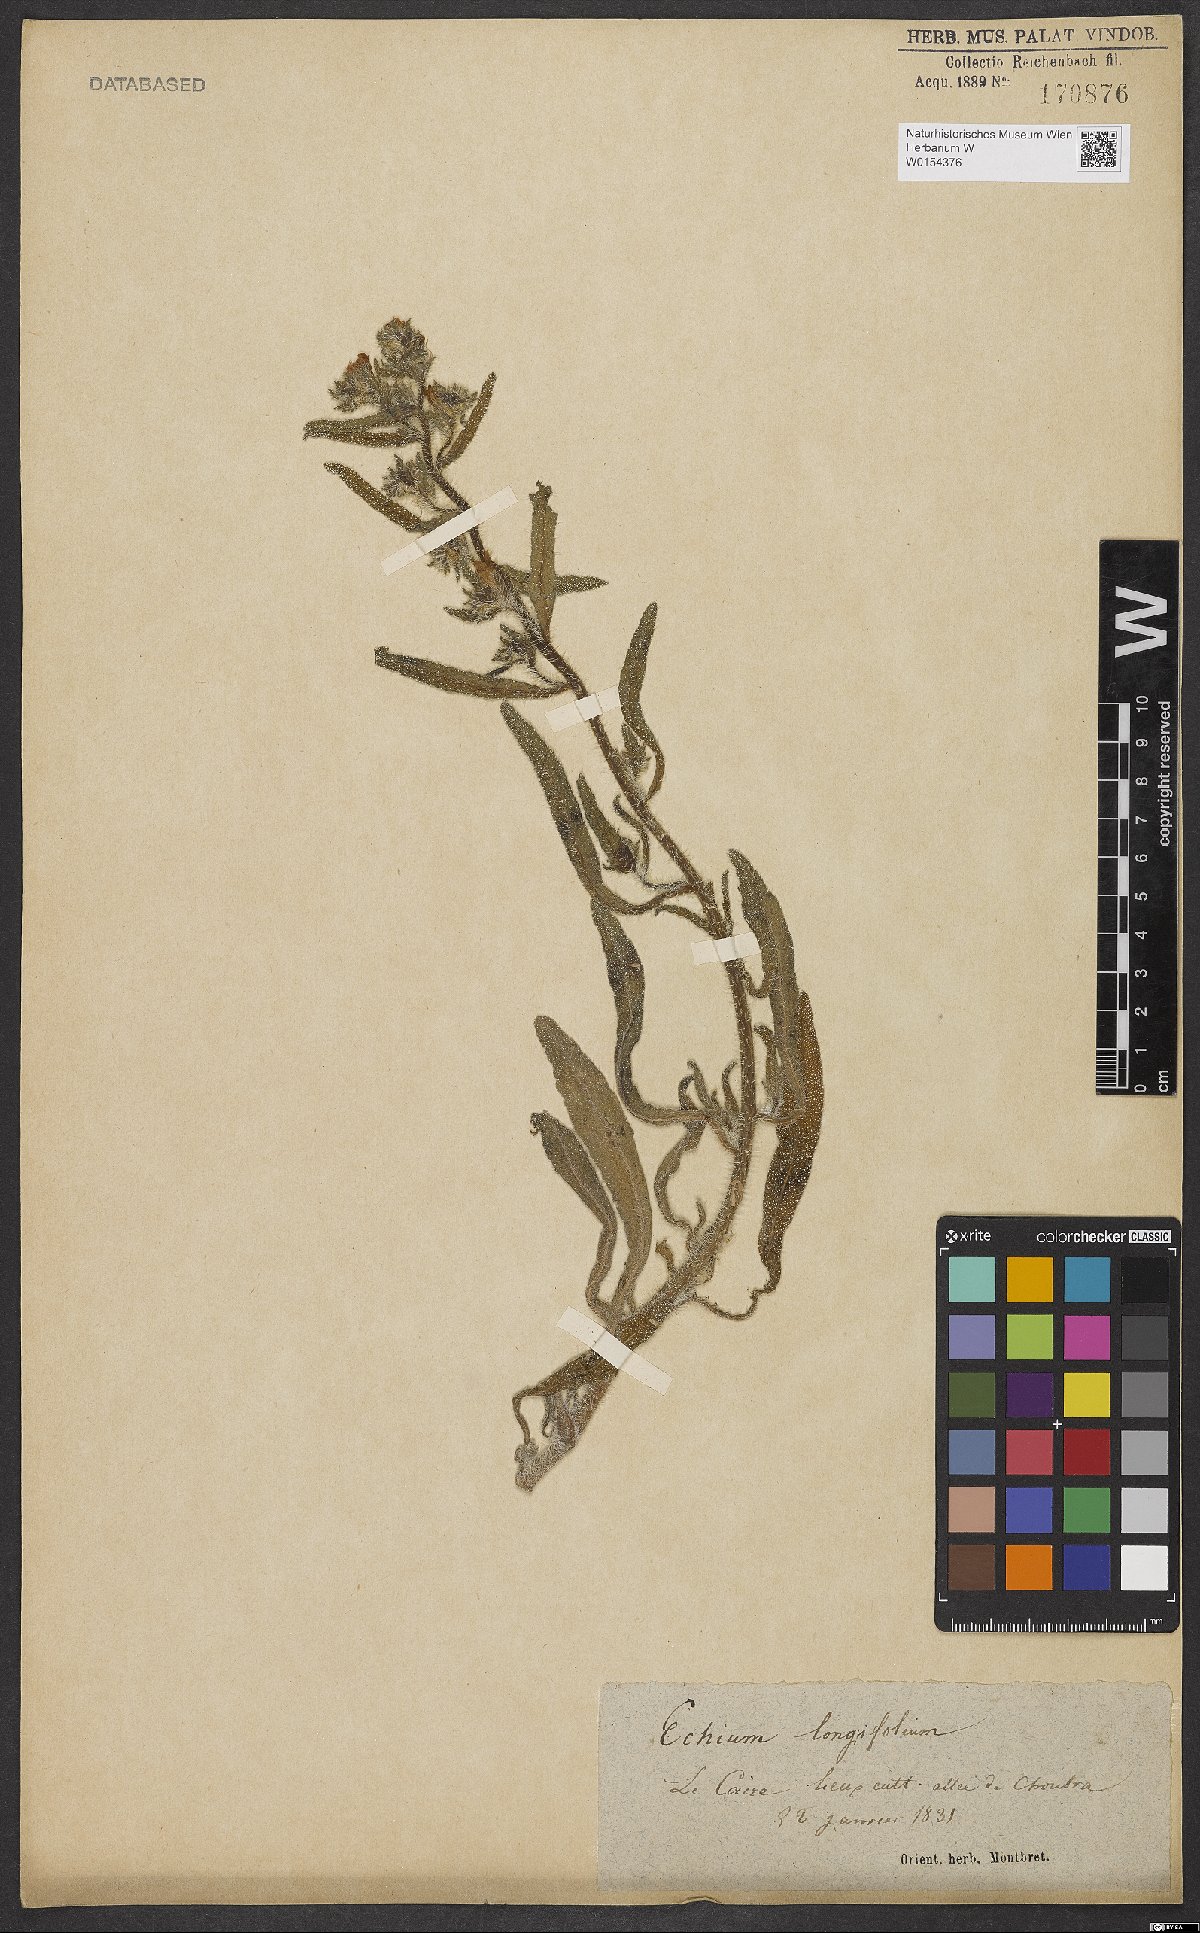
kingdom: Plantae
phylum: Tracheophyta
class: Magnoliopsida
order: Boraginales
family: Boraginaceae
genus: Echium
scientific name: Echium longifolium
